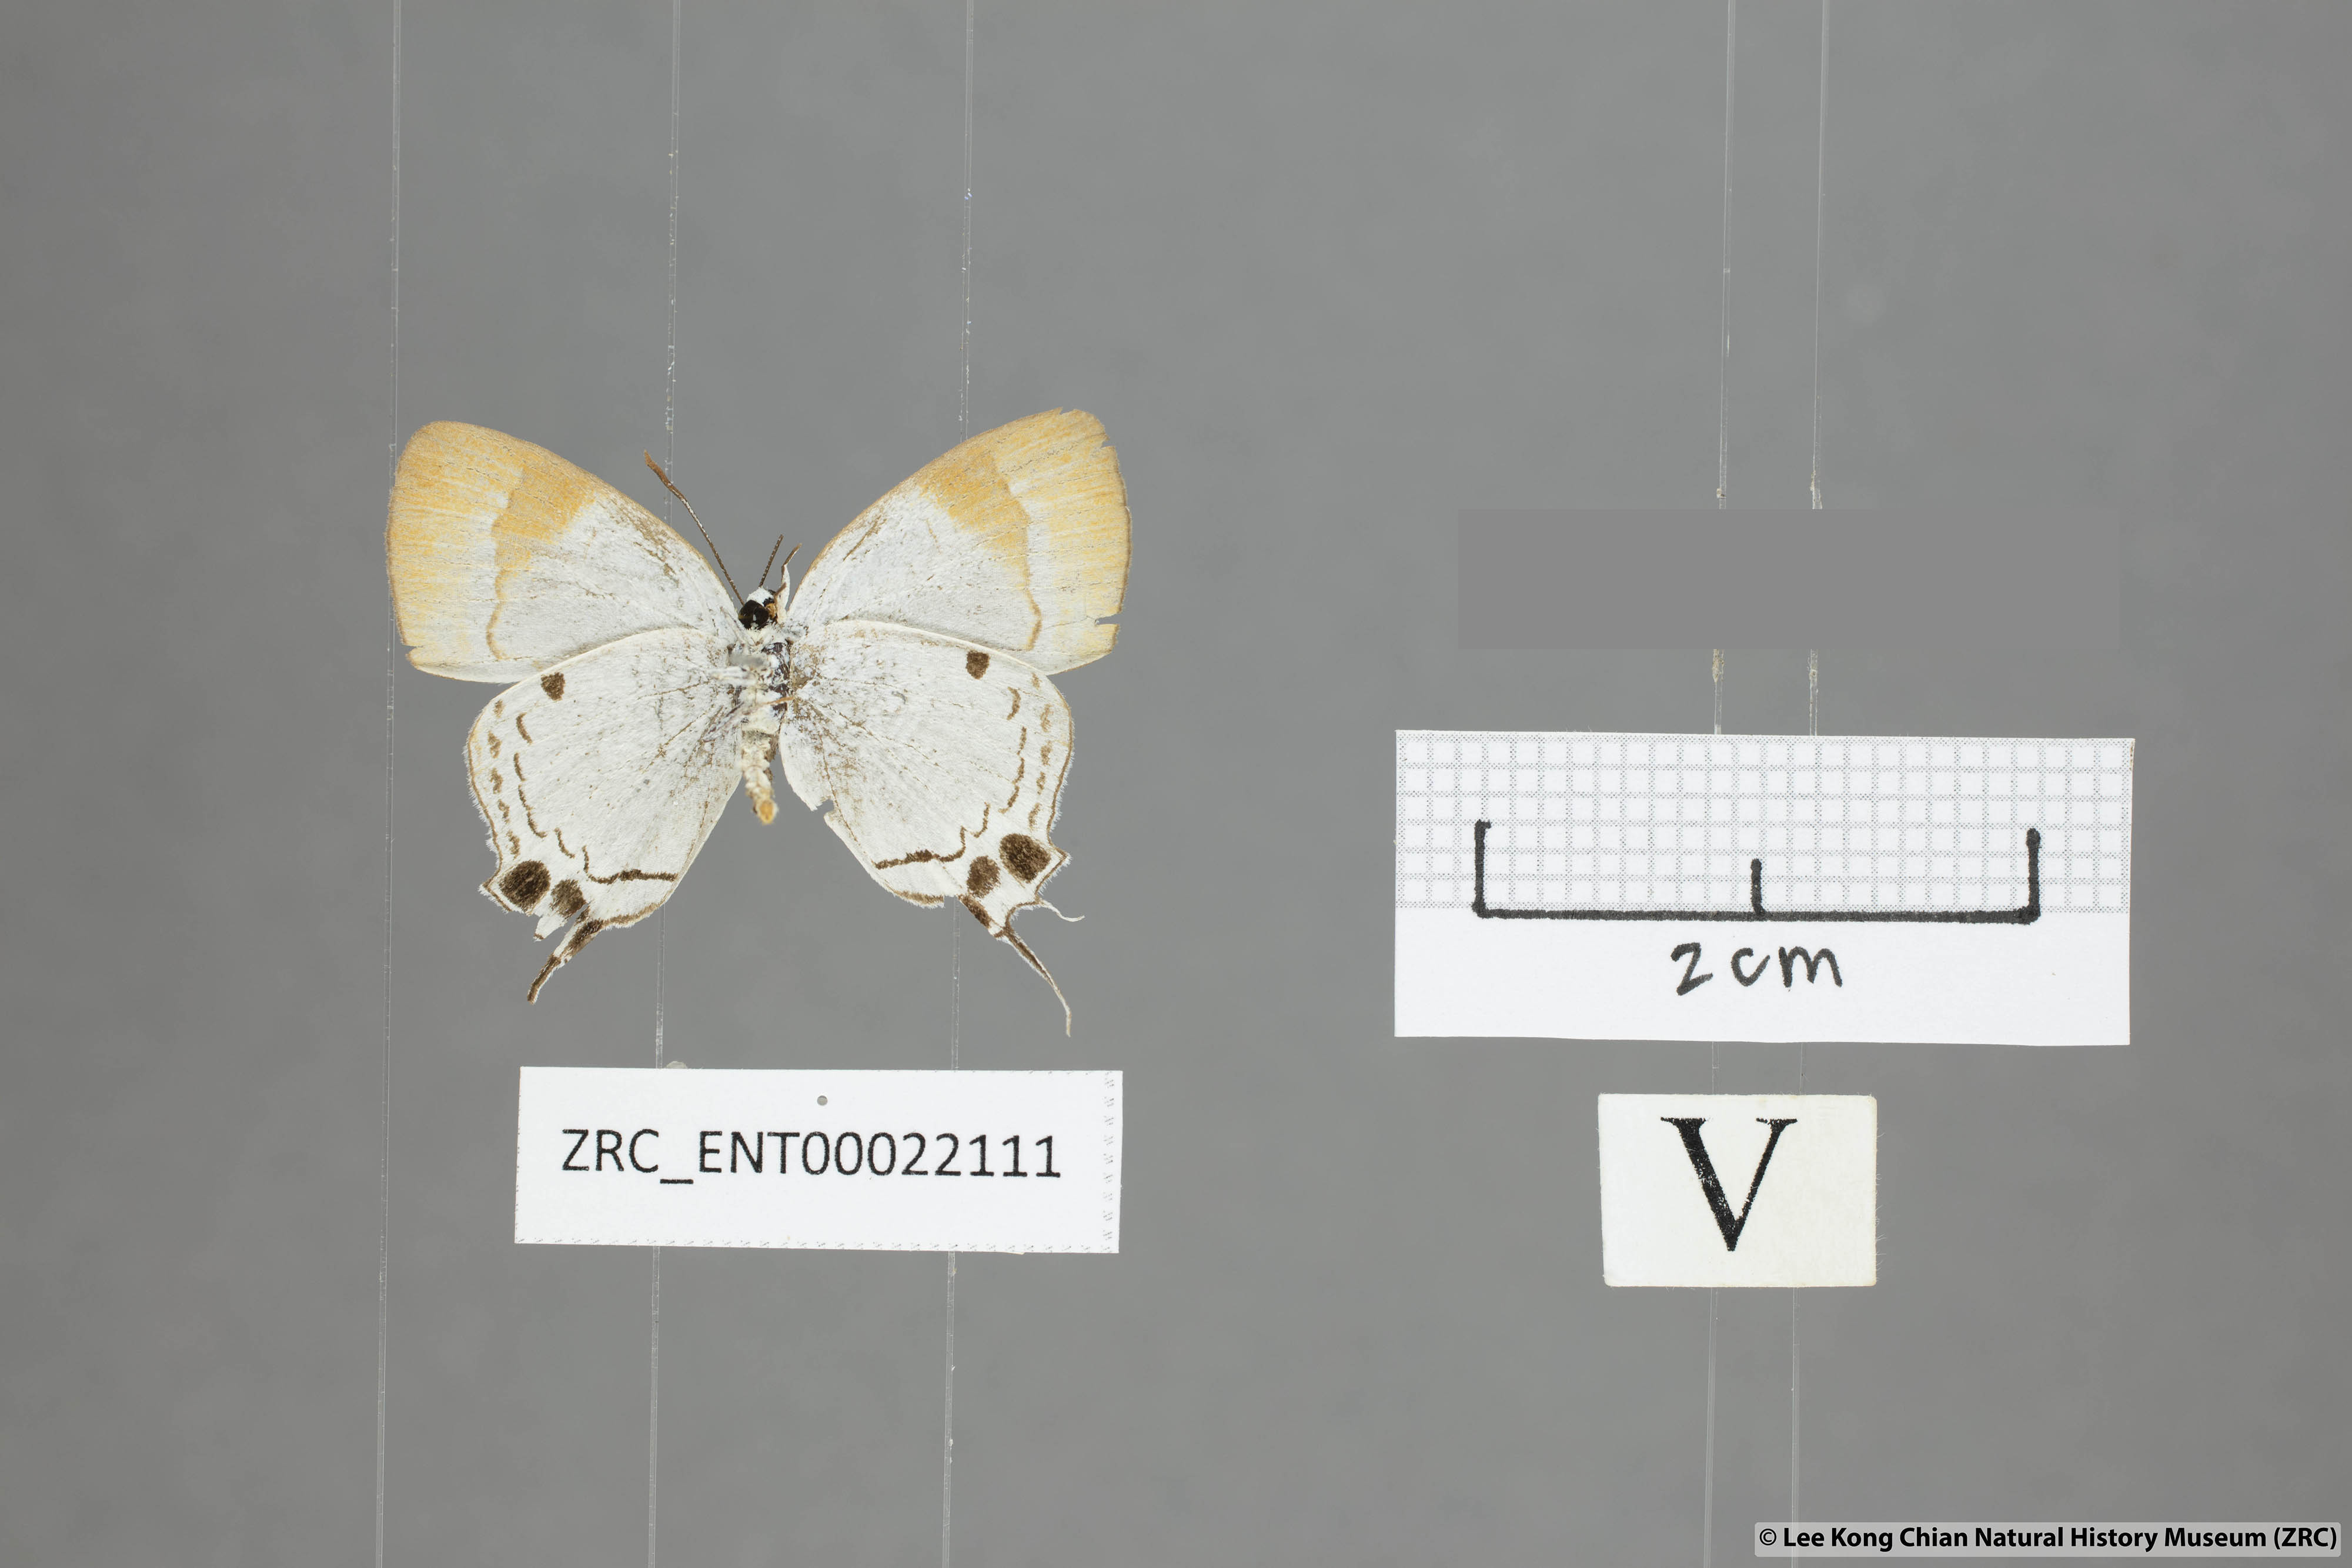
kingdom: Animalia
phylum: Arthropoda
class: Insecta
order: Lepidoptera
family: Lycaenidae
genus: Suasa
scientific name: Suasa lisides
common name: Red imperial
